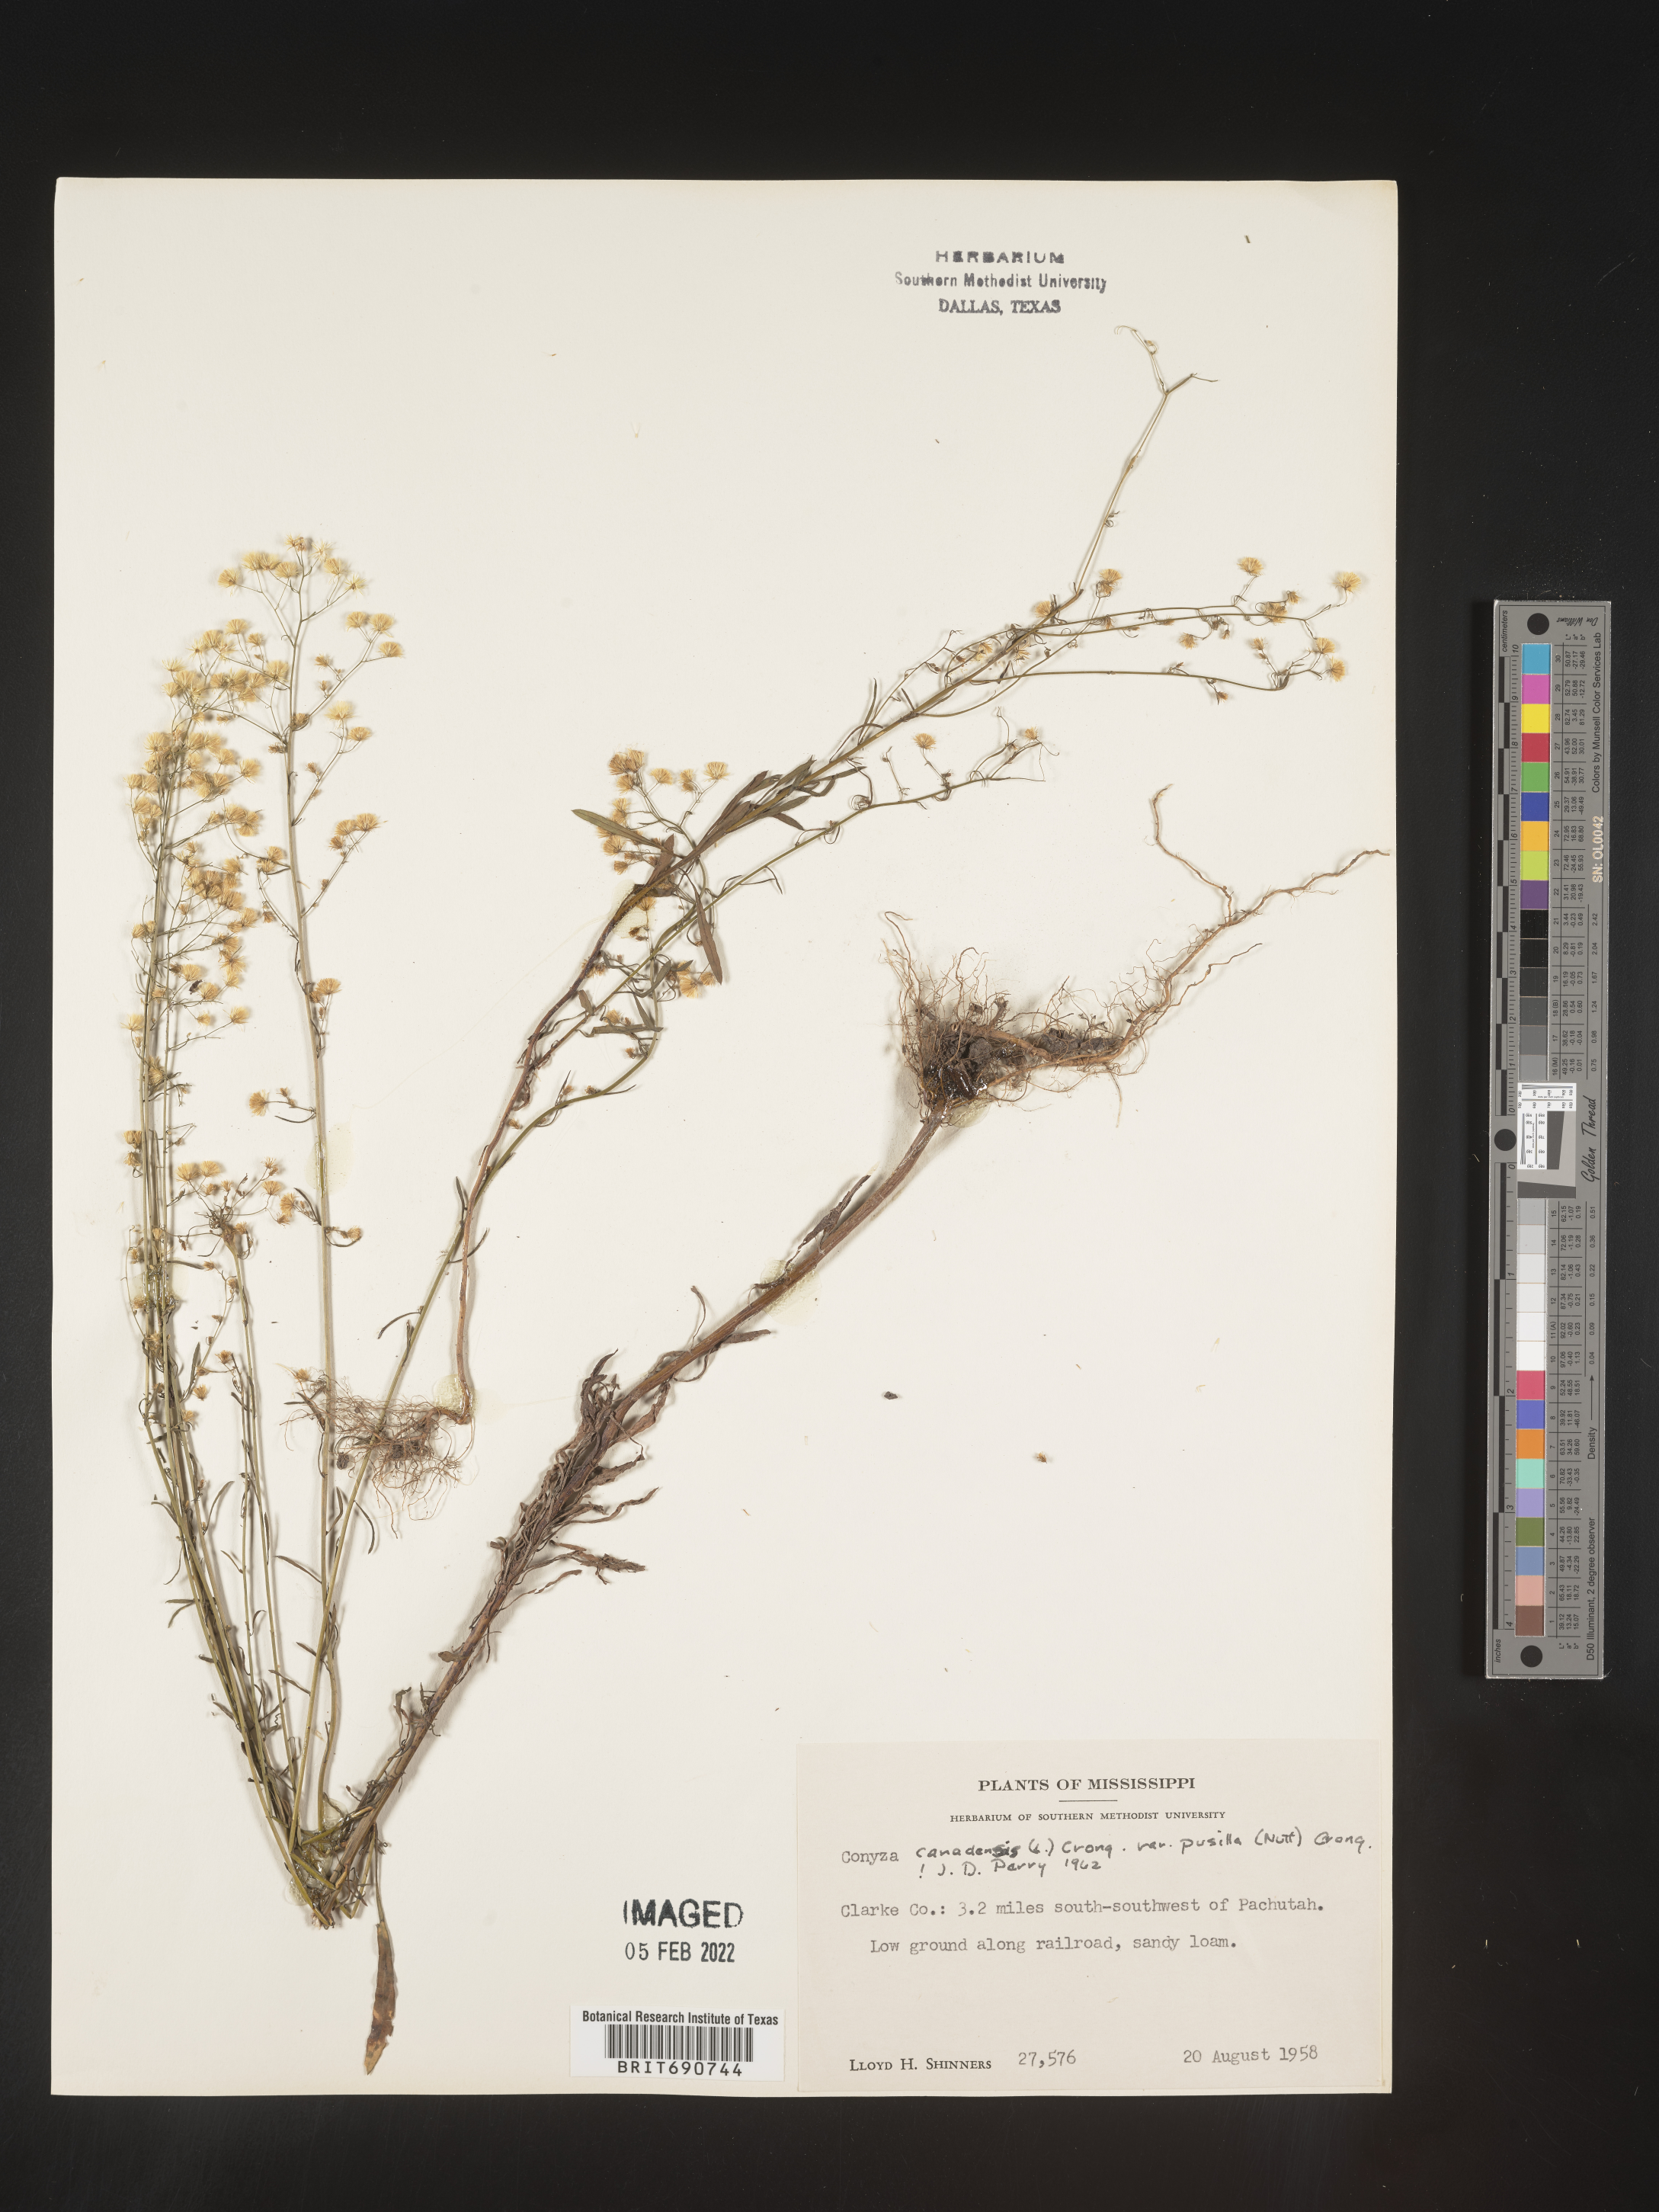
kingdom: Plantae
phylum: Tracheophyta
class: Magnoliopsida
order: Asterales
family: Asteraceae
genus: Erigeron
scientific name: Erigeron canadensis
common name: Canadian fleabane
